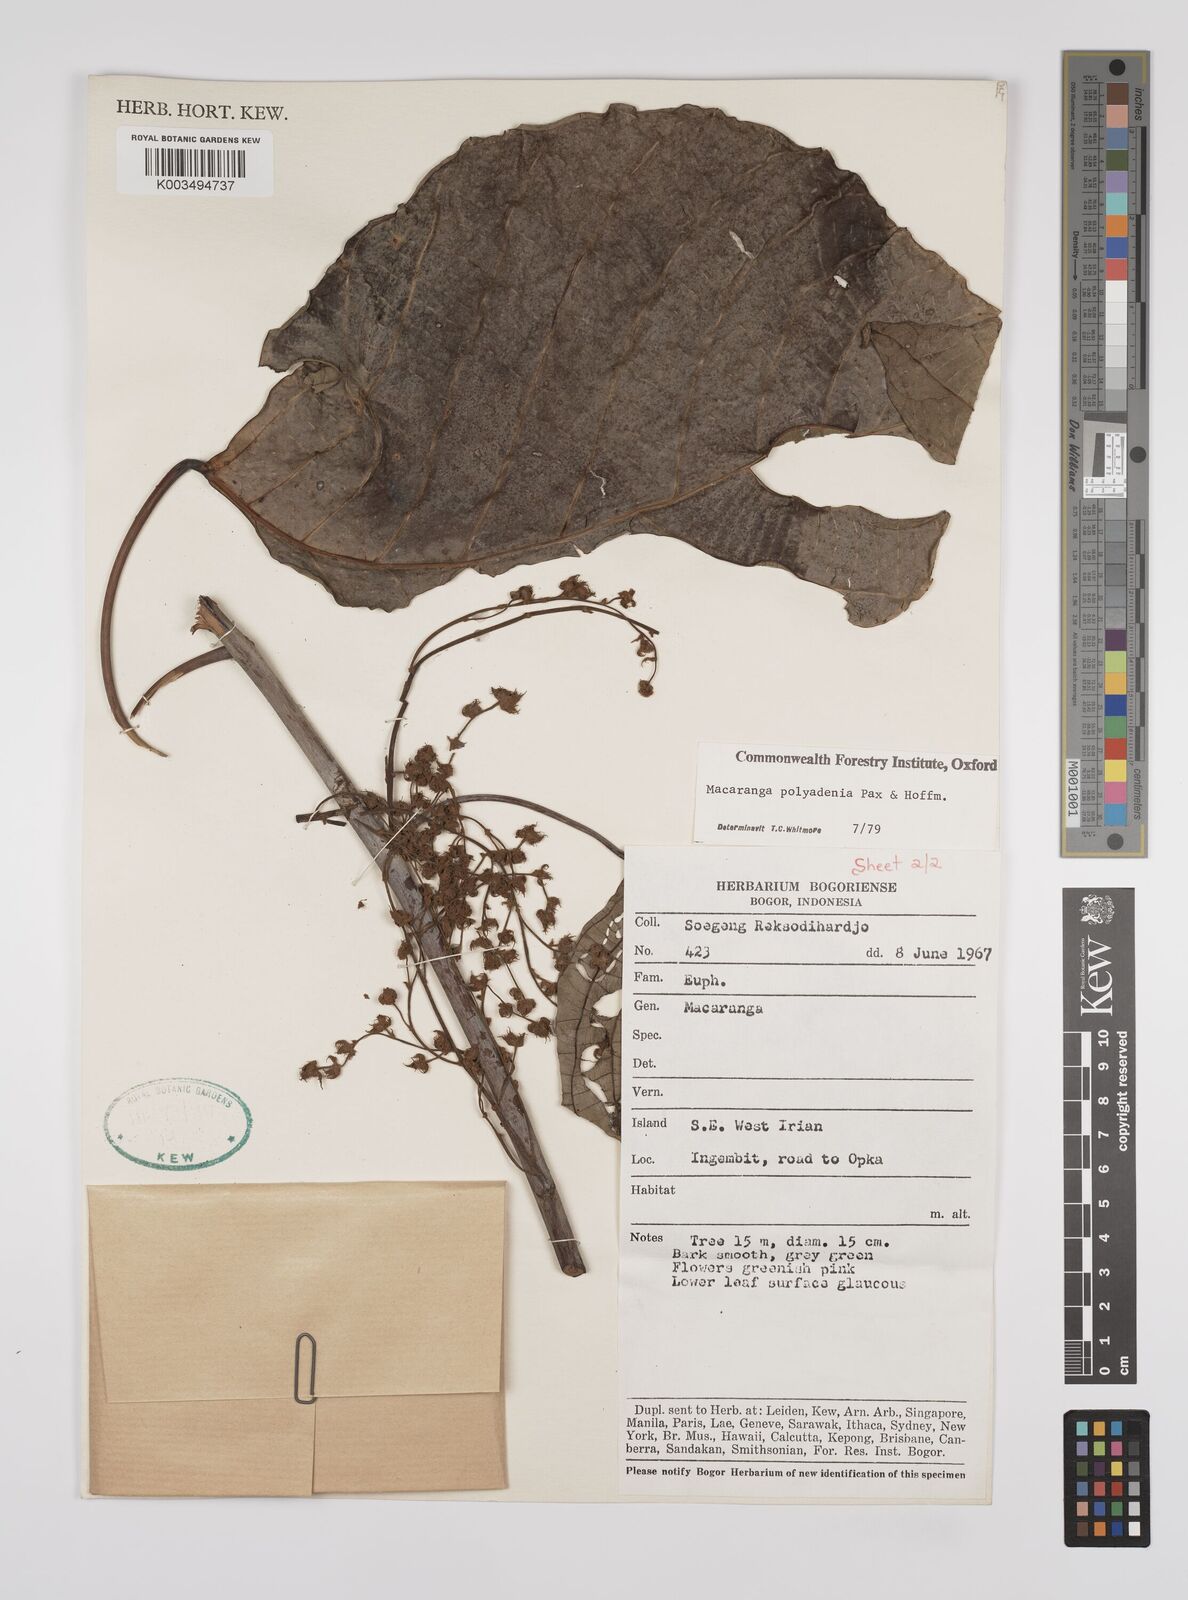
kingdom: Plantae
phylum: Tracheophyta
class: Magnoliopsida
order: Malpighiales
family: Euphorbiaceae
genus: Macaranga
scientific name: Macaranga polyadenia
